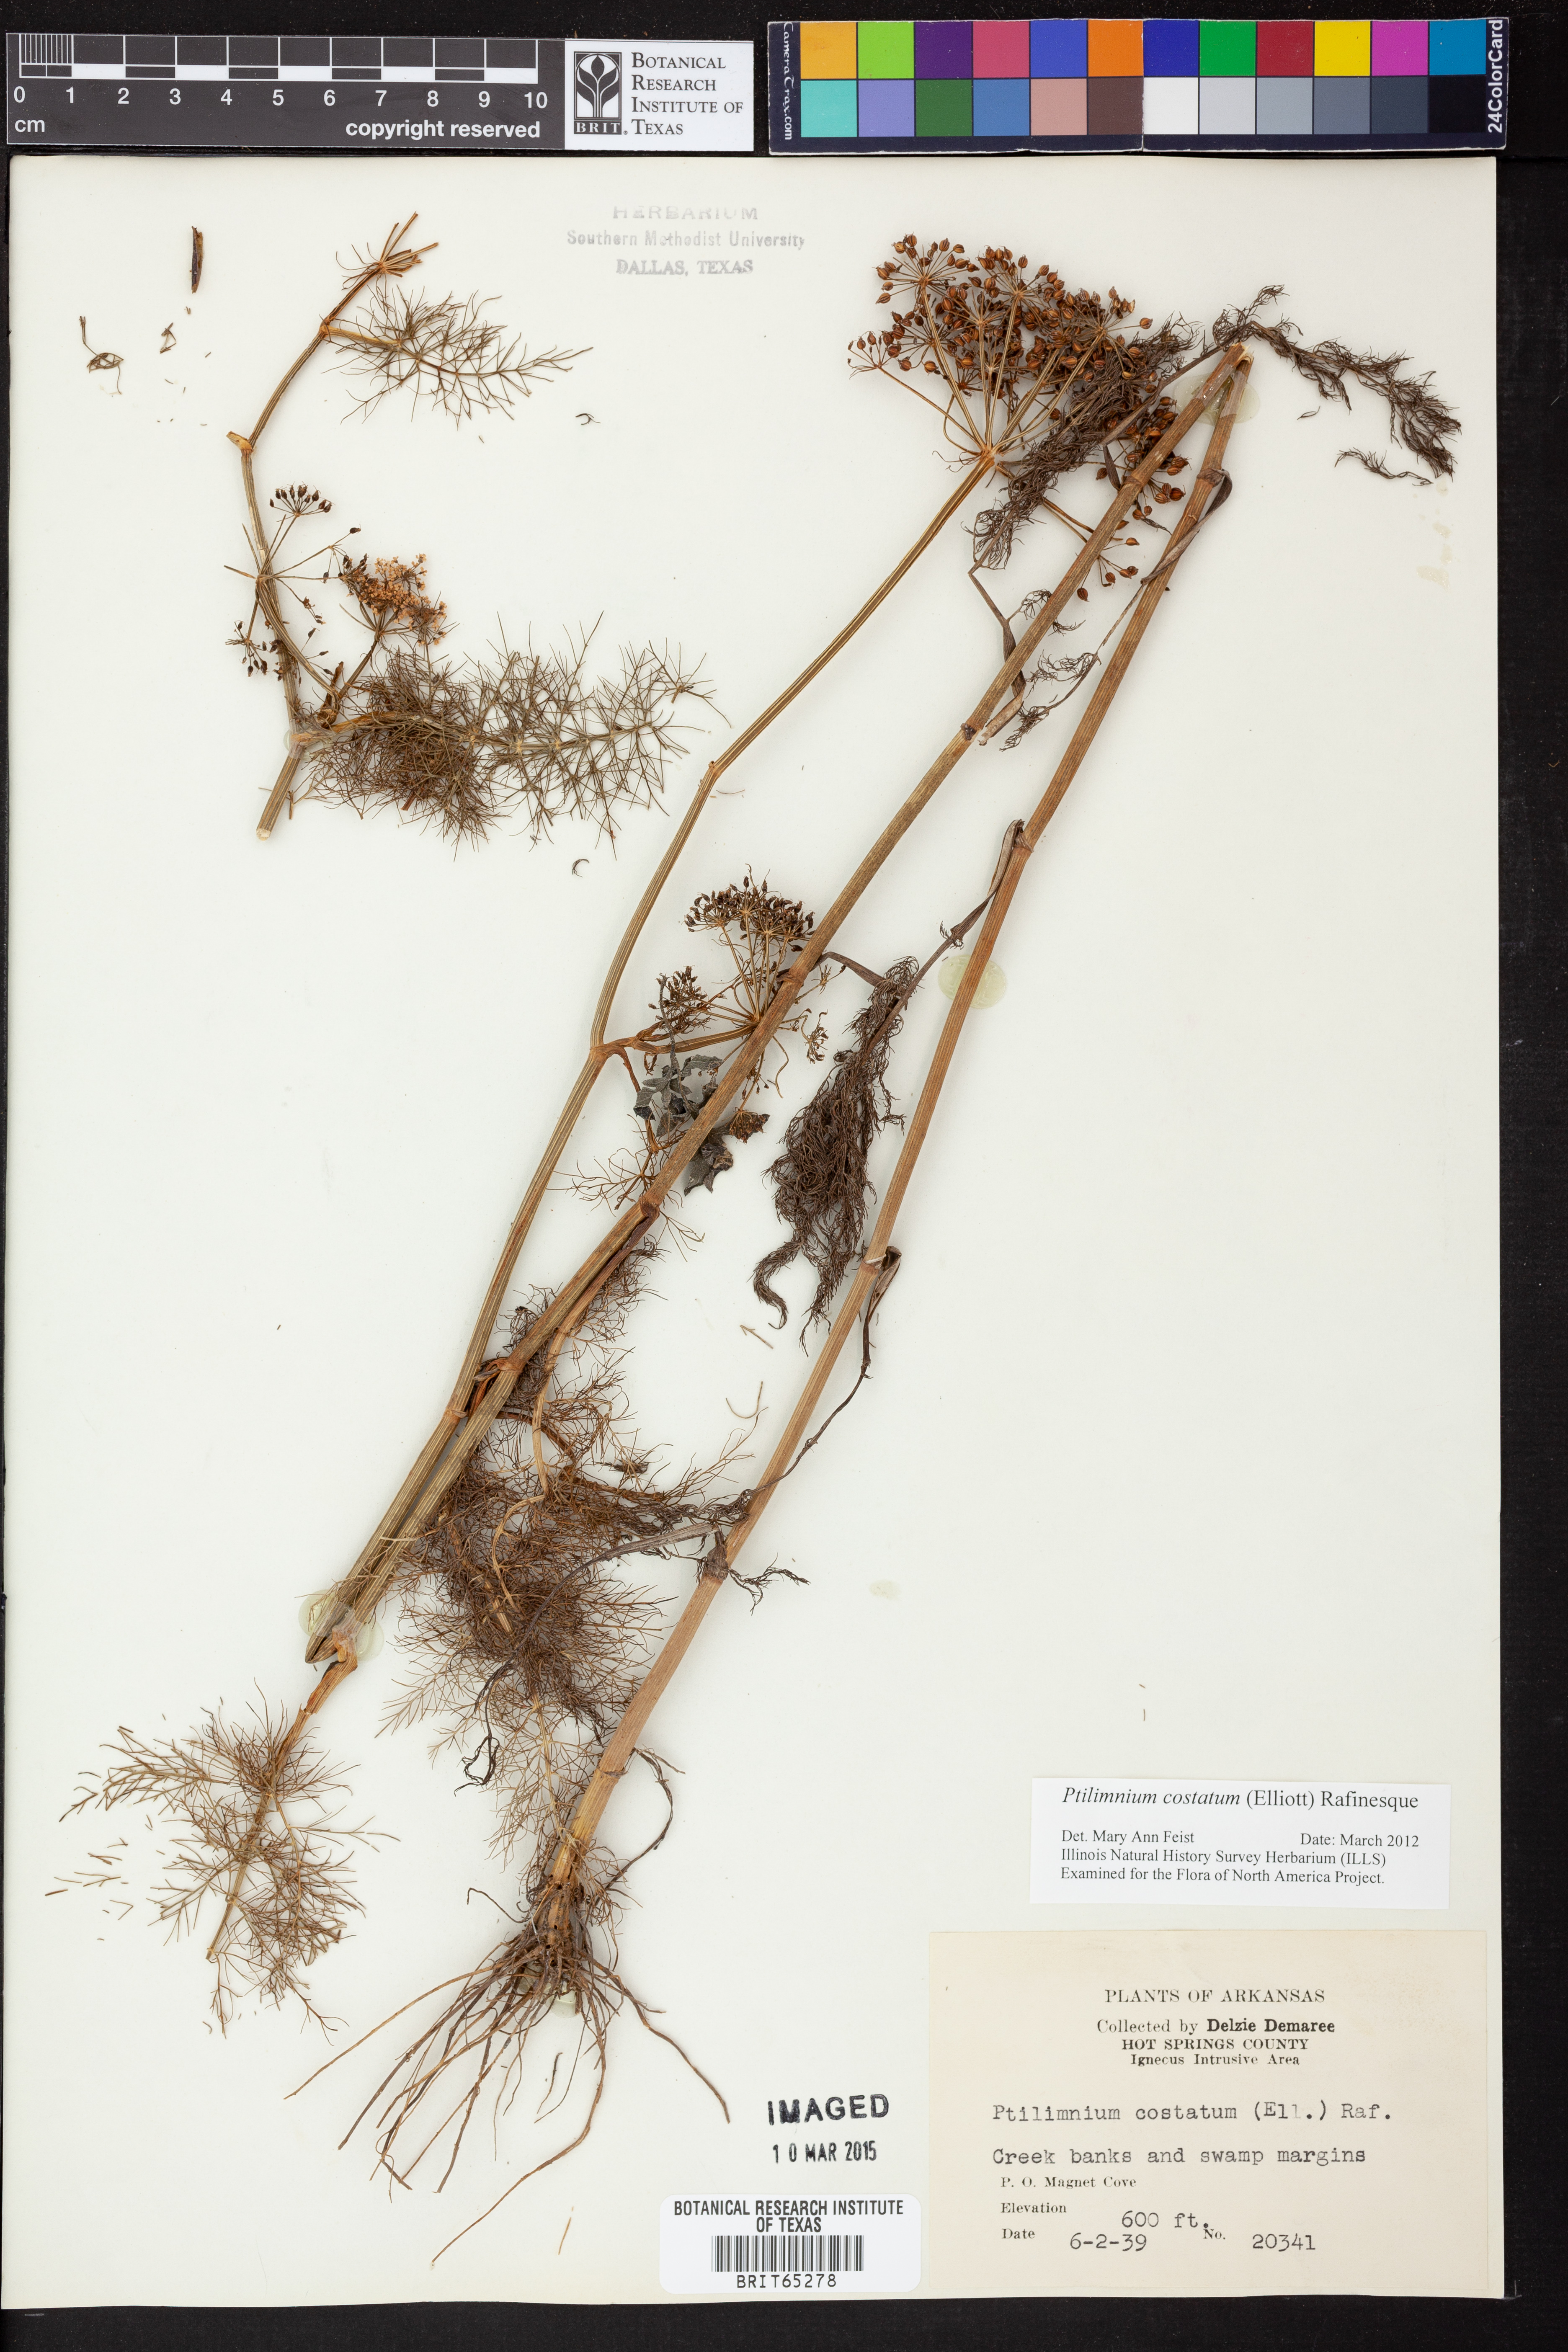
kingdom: Plantae
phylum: Tracheophyta
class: Magnoliopsida
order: Apiales
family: Apiaceae
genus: Ptilimnium
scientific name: Ptilimnium costatum
